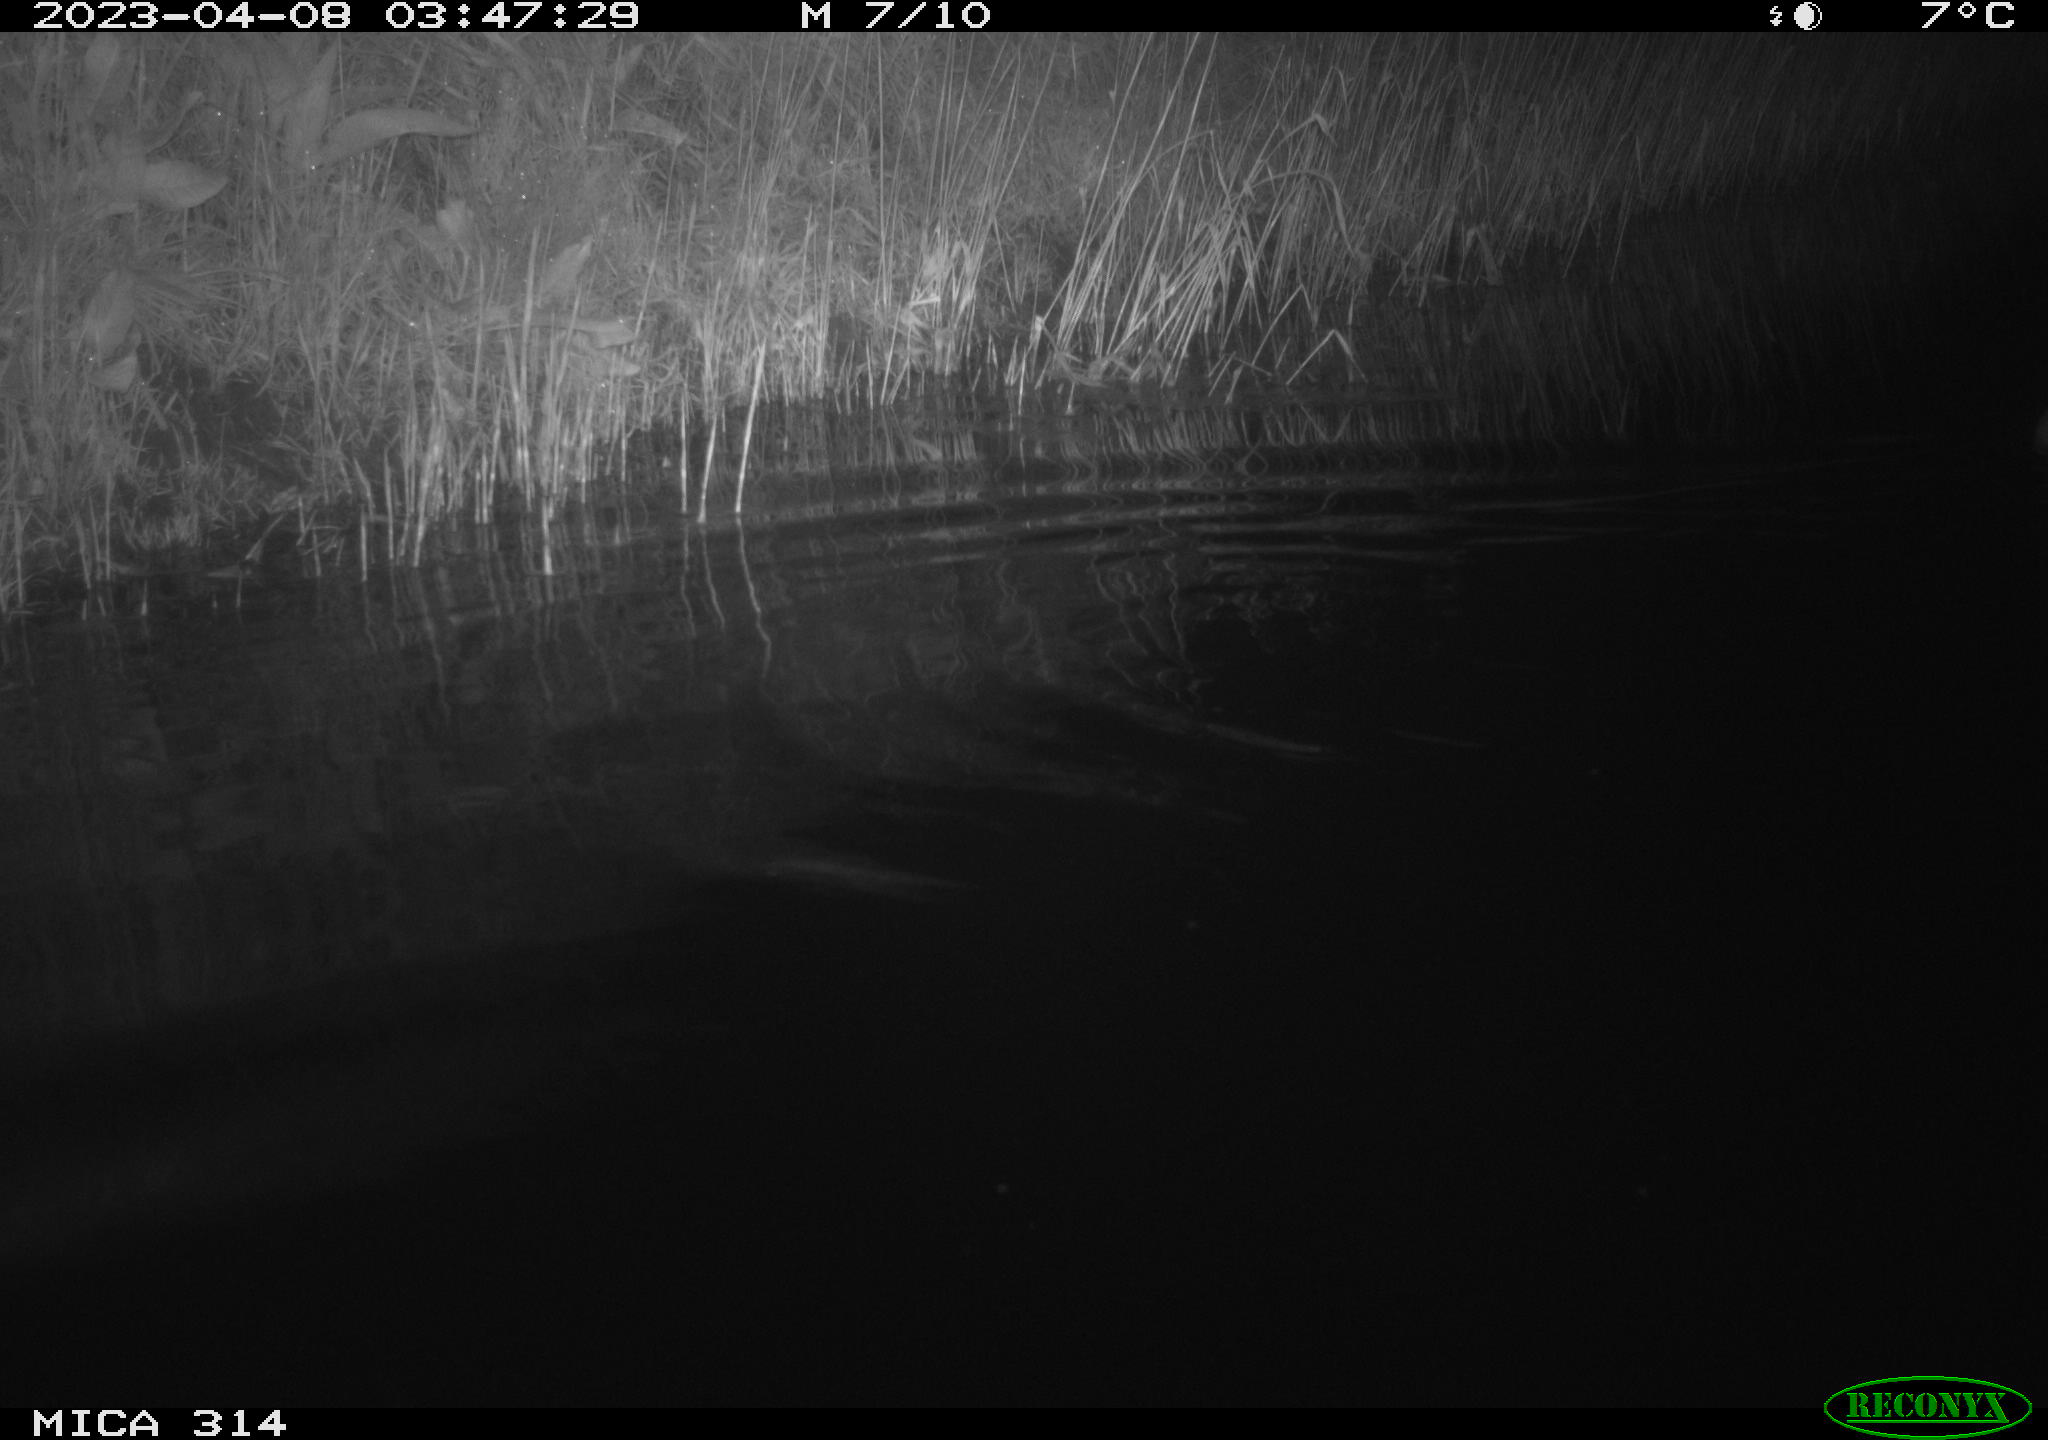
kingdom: Animalia
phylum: Chordata
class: Aves
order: Anseriformes
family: Anatidae
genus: Anas
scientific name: Anas
